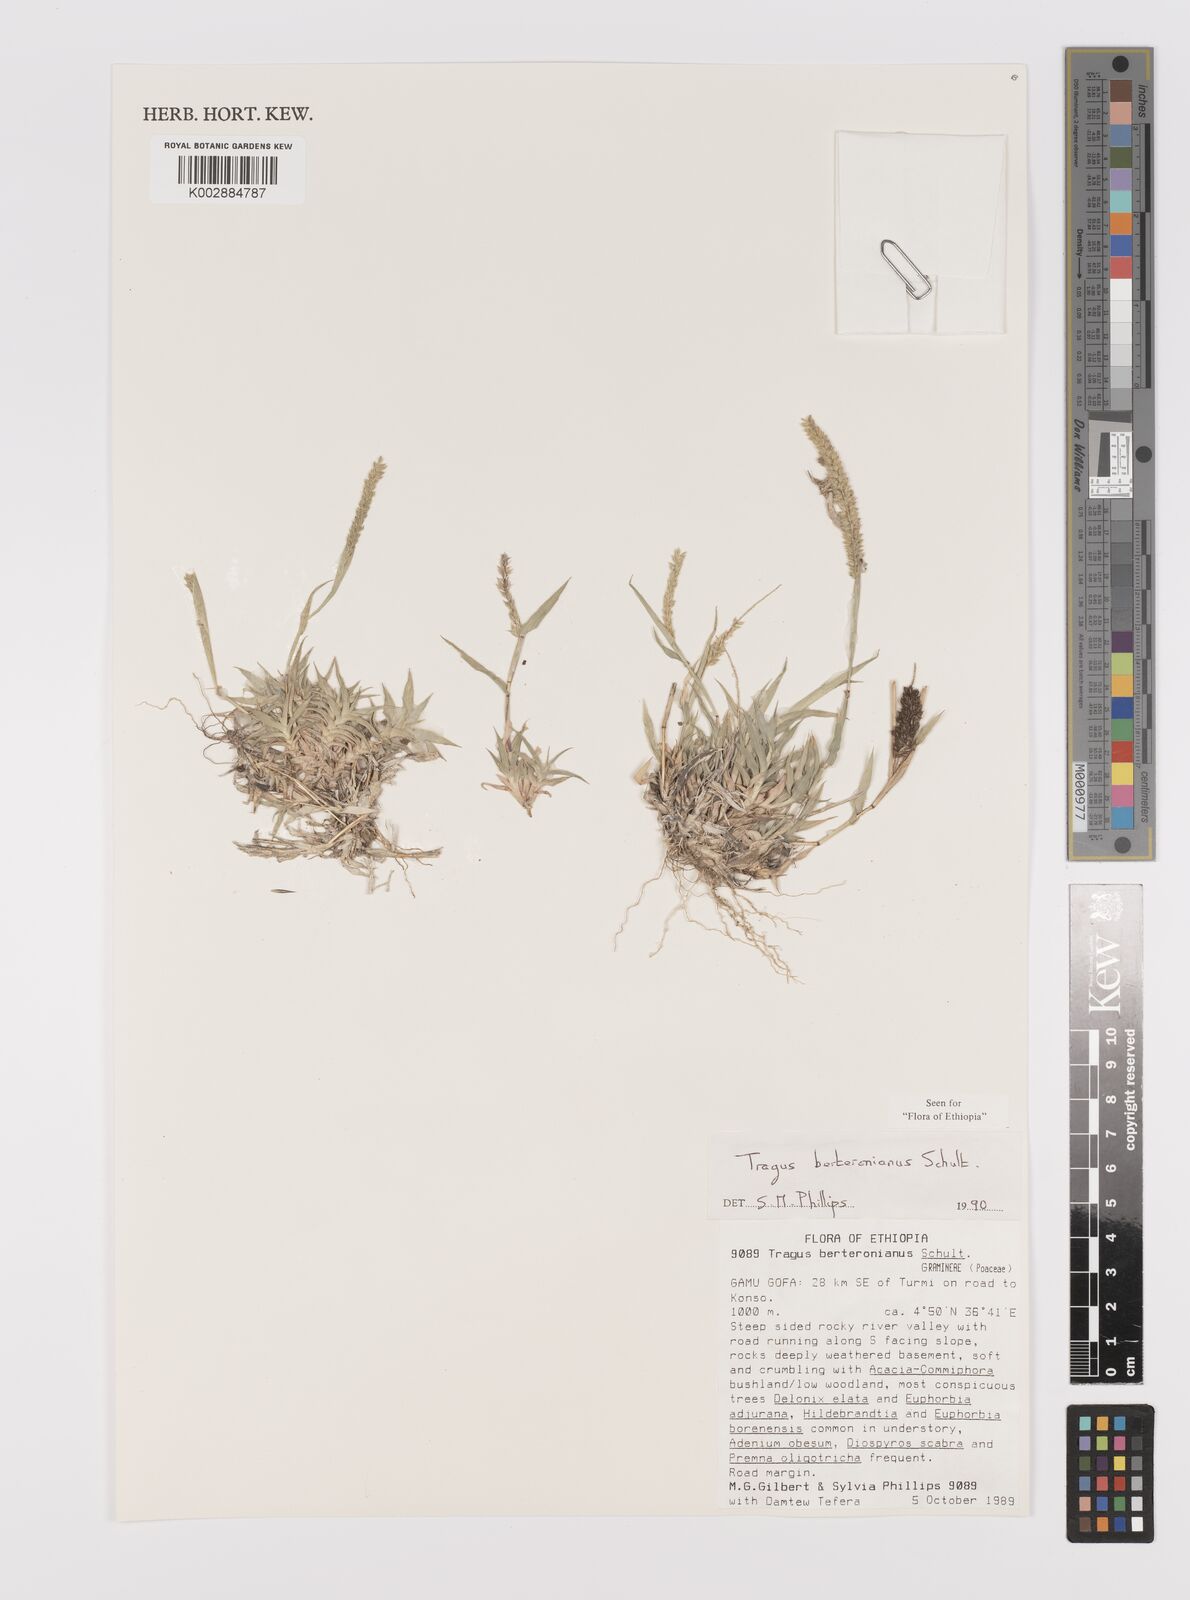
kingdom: Plantae
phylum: Tracheophyta
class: Liliopsida
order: Poales
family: Poaceae
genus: Tragus
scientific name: Tragus berteronianus
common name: African bur-grass
